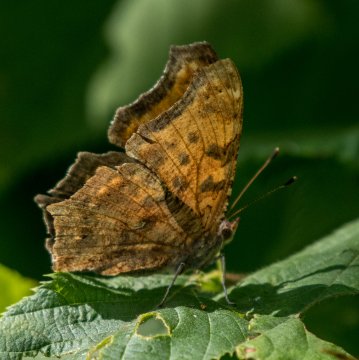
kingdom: Animalia
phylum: Arthropoda
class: Insecta
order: Lepidoptera
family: Nymphalidae
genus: Polygonia
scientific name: Polygonia comma
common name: Eastern Comma
